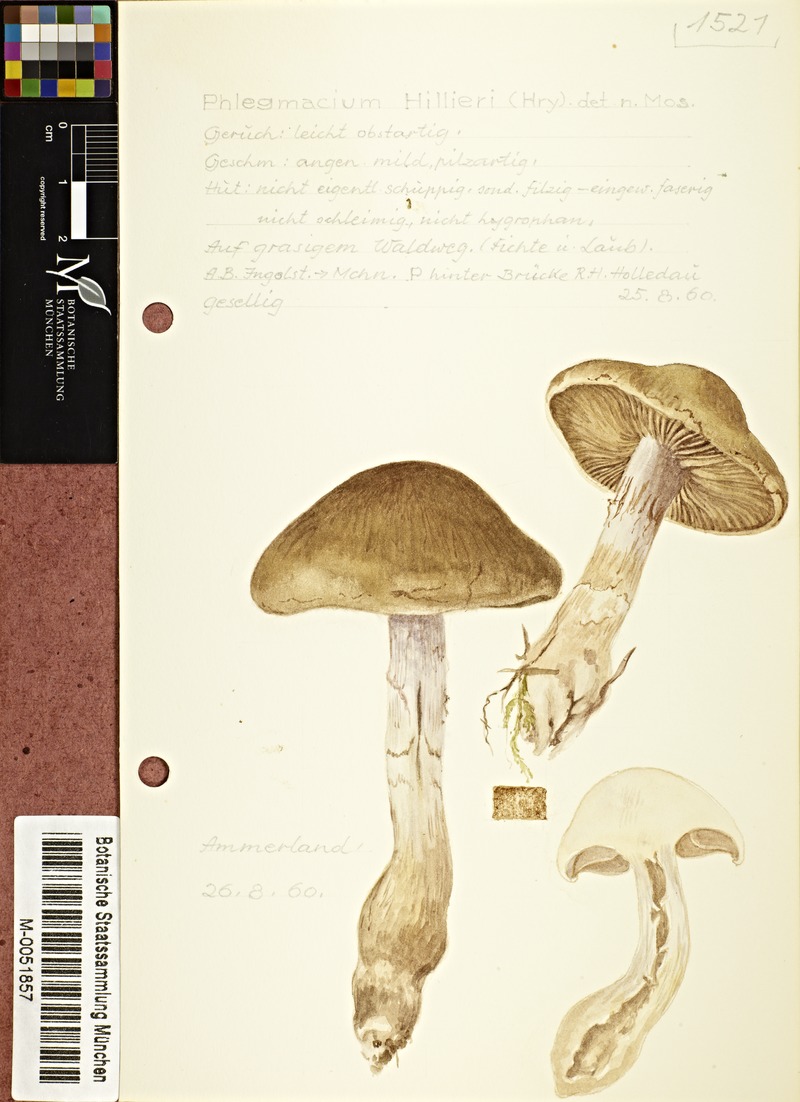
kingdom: Fungi
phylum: Basidiomycota
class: Agaricomycetes
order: Agaricales
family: Cortinariaceae
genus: Cortinarius
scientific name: Cortinarius hillieri
